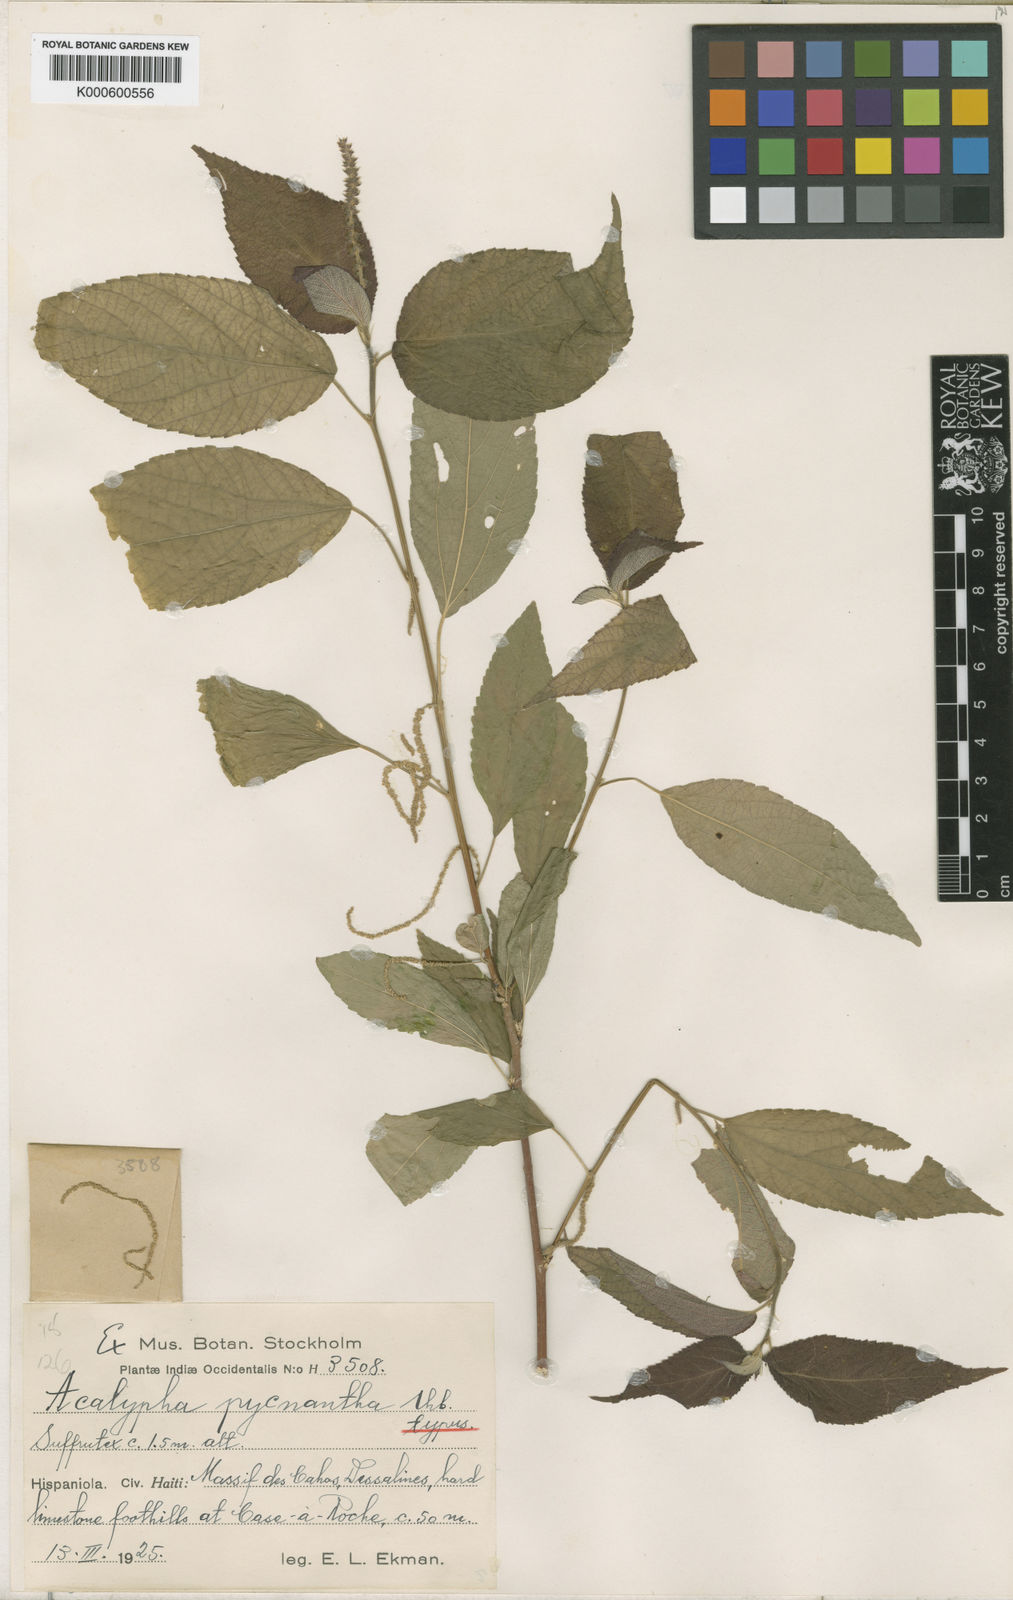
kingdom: Plantae
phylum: Tracheophyta
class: Magnoliopsida
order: Malpighiales
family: Euphorbiaceae
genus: Acalypha
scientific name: Acalypha pycnantha
